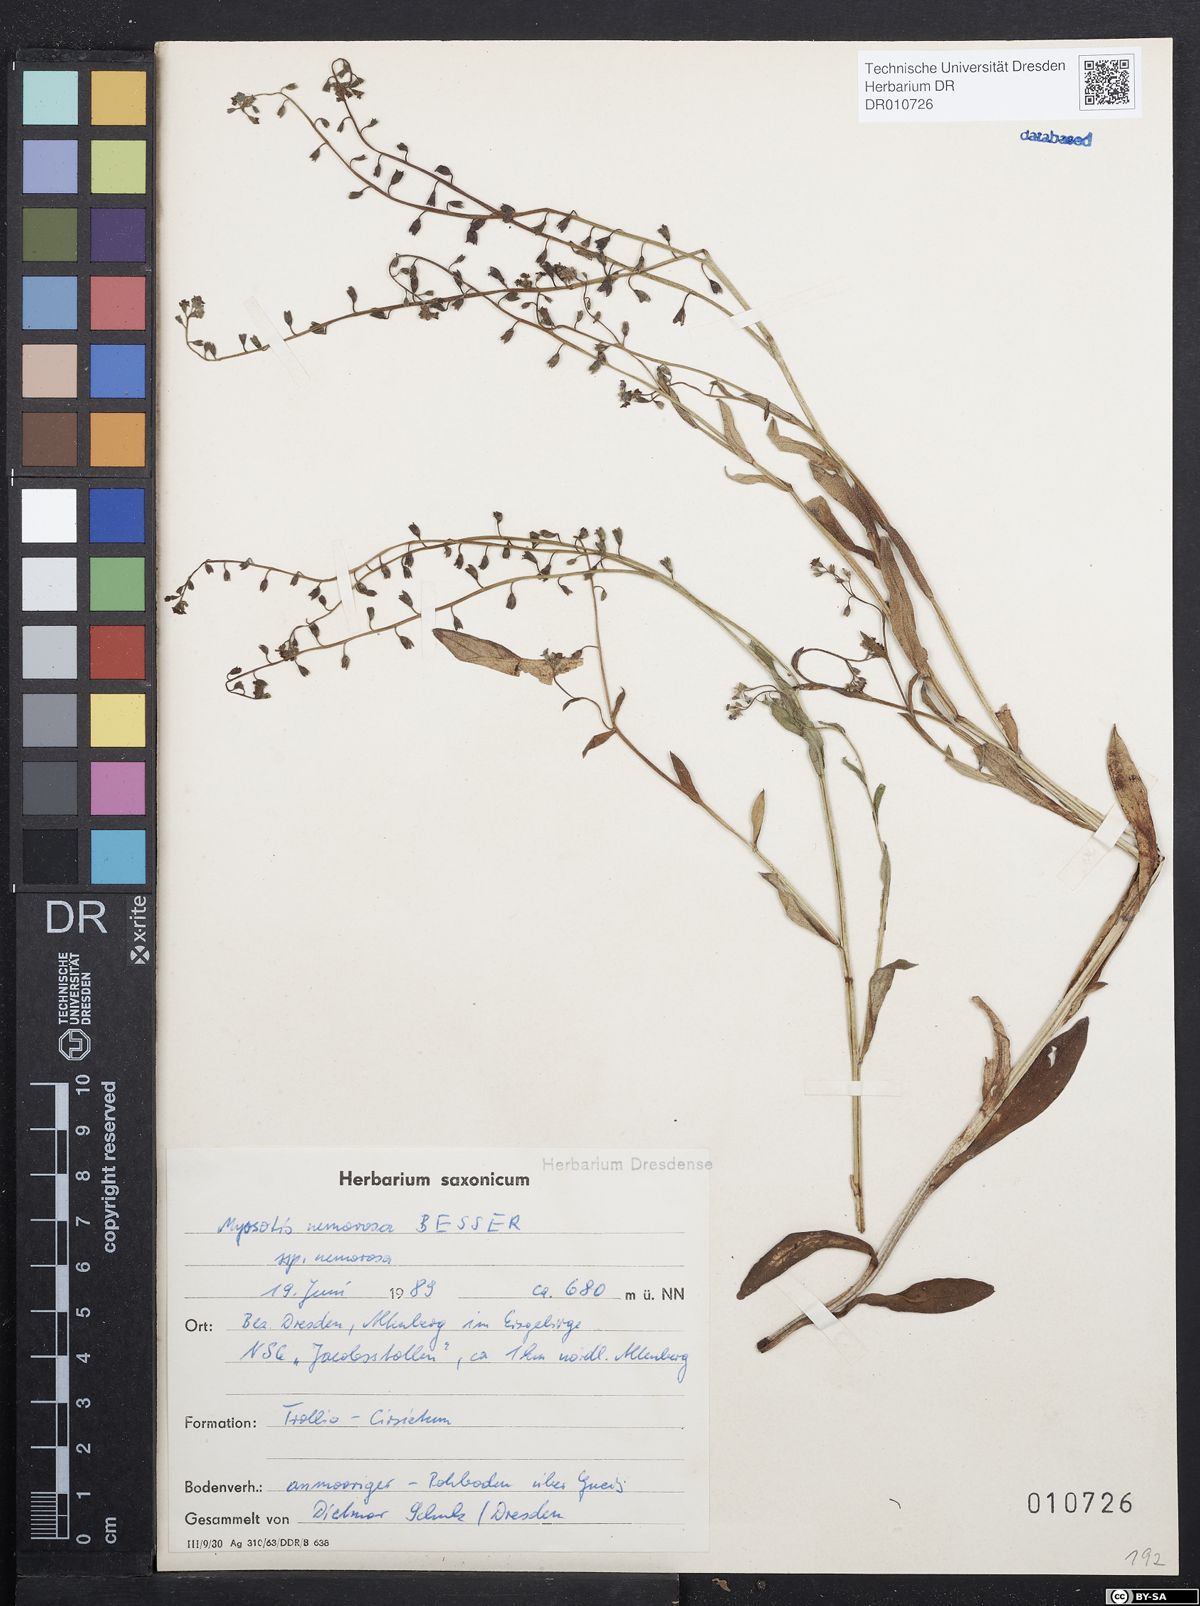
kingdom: Plantae
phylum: Tracheophyta
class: Magnoliopsida
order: Boraginales
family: Boraginaceae
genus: Myosotis
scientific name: Myosotis nemorosa
